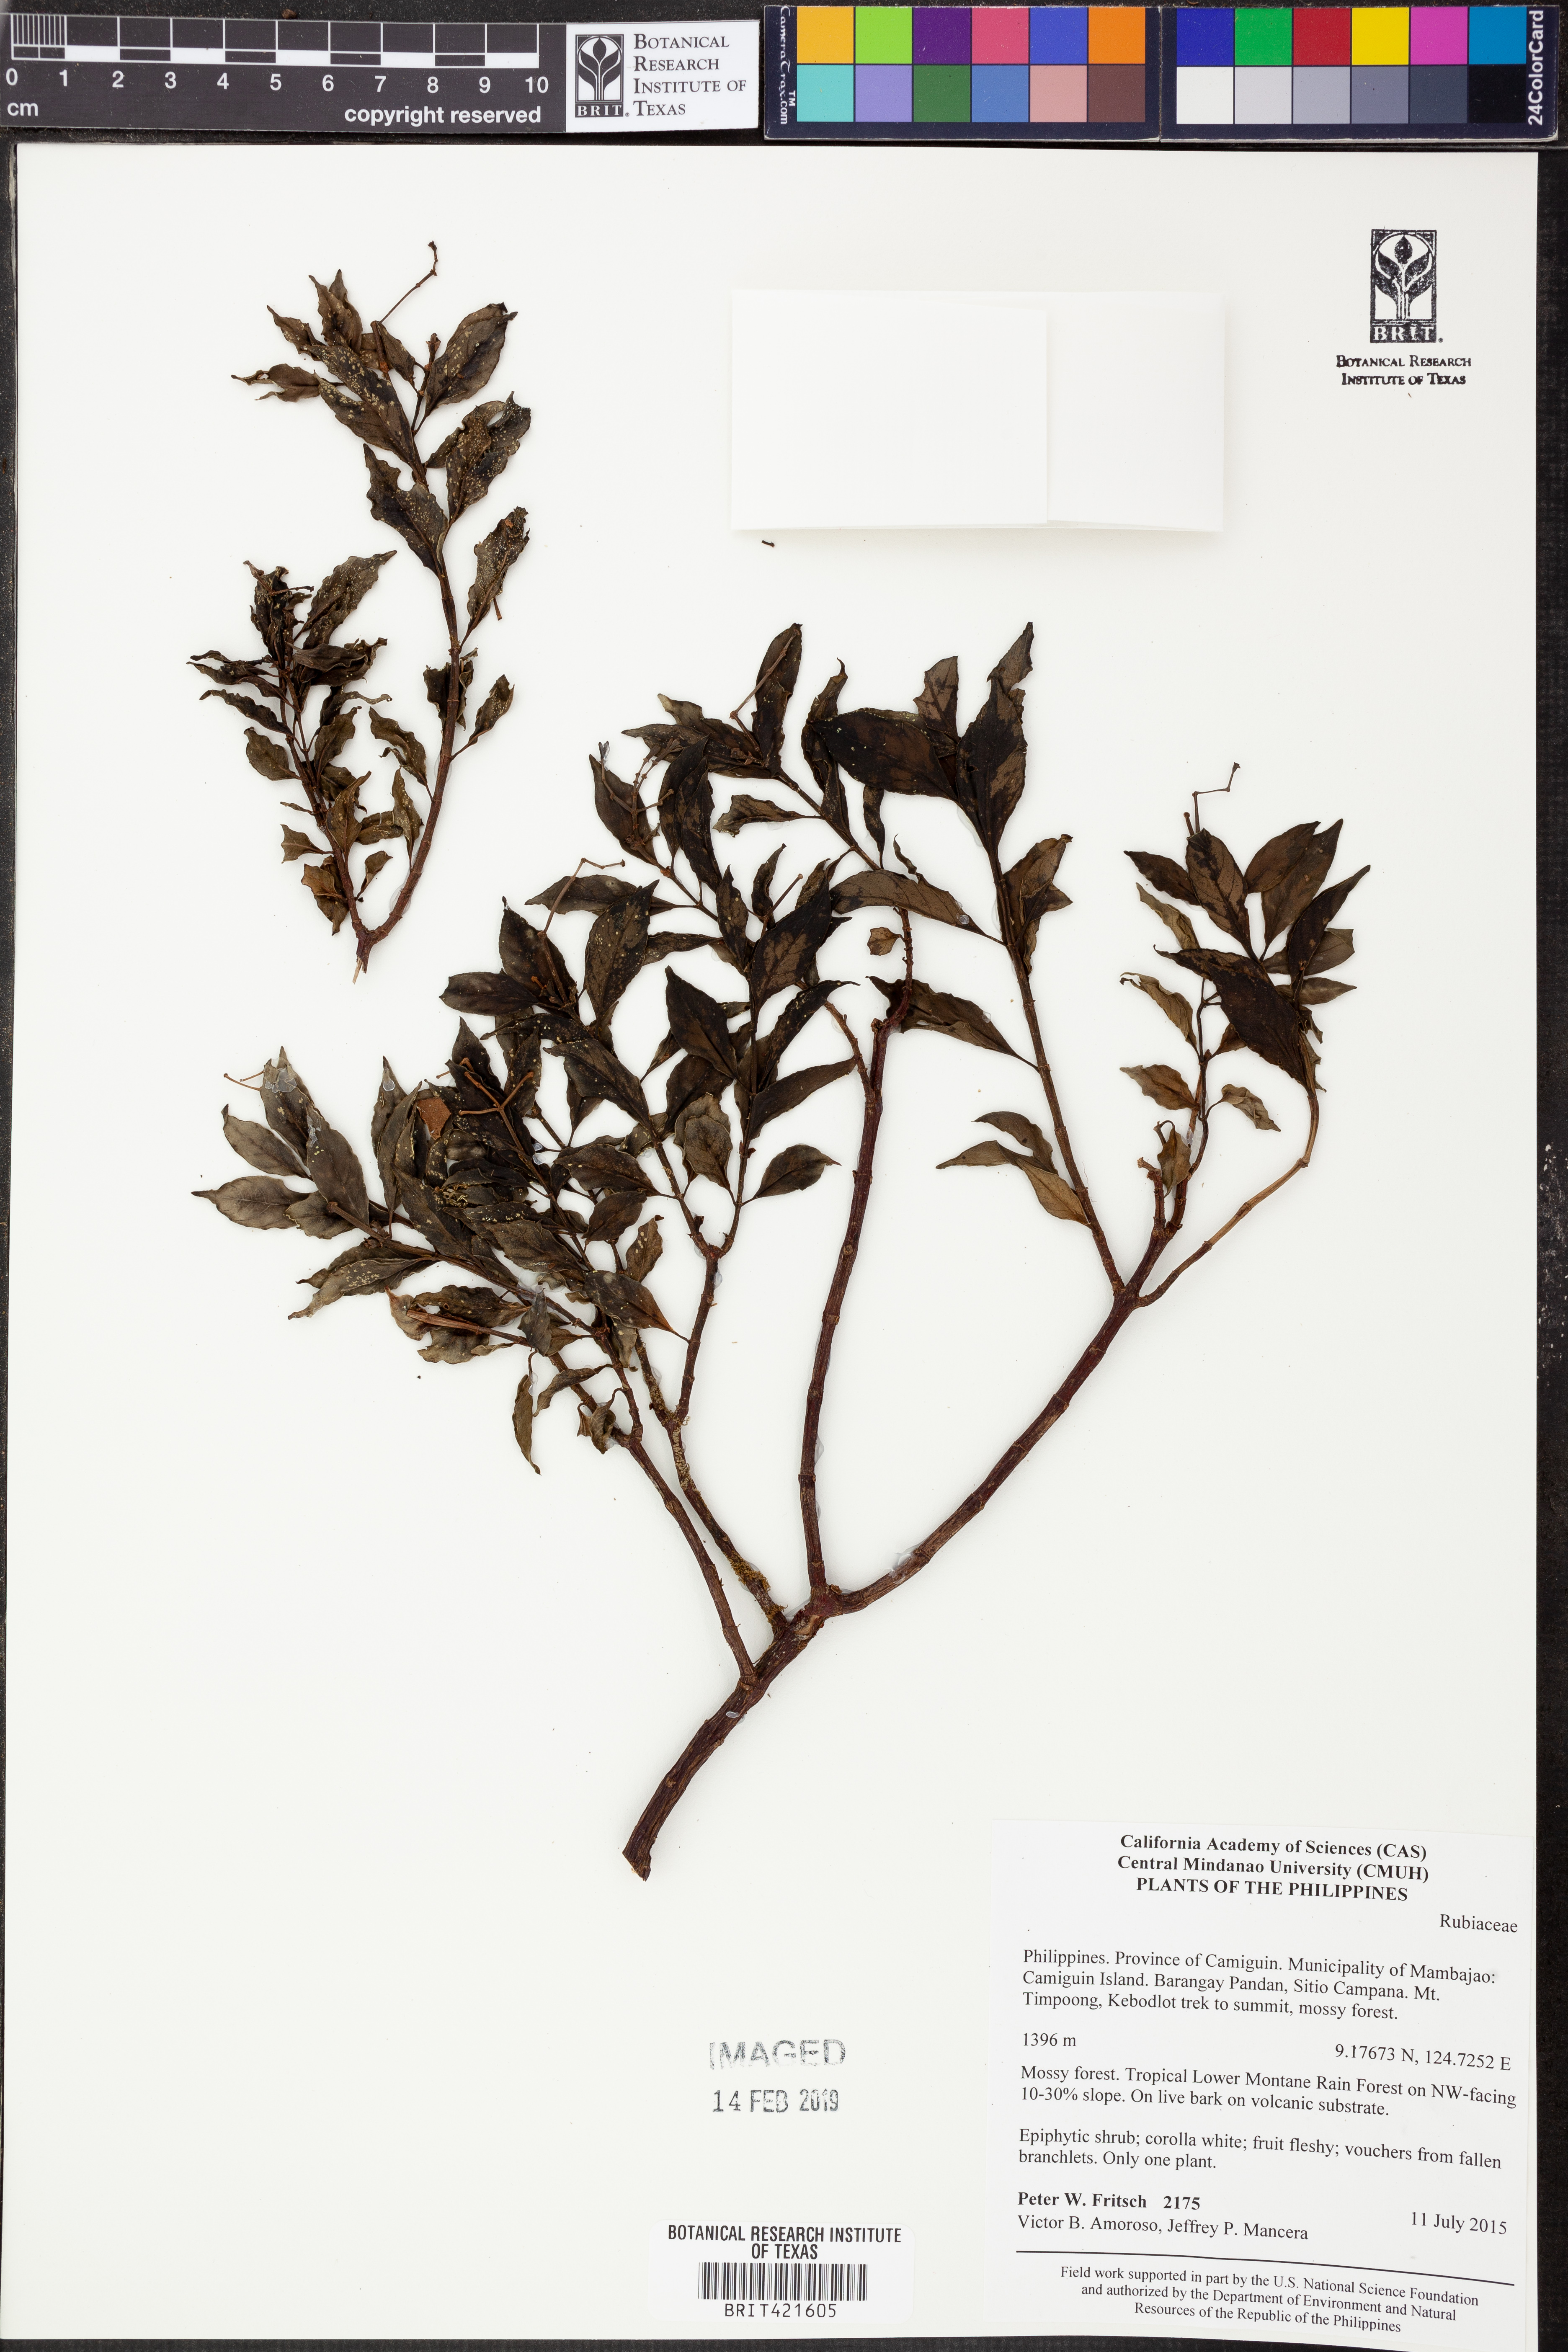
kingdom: Plantae
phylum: Tracheophyta
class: Magnoliopsida
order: Gentianales
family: Rubiaceae
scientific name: Rubiaceae
